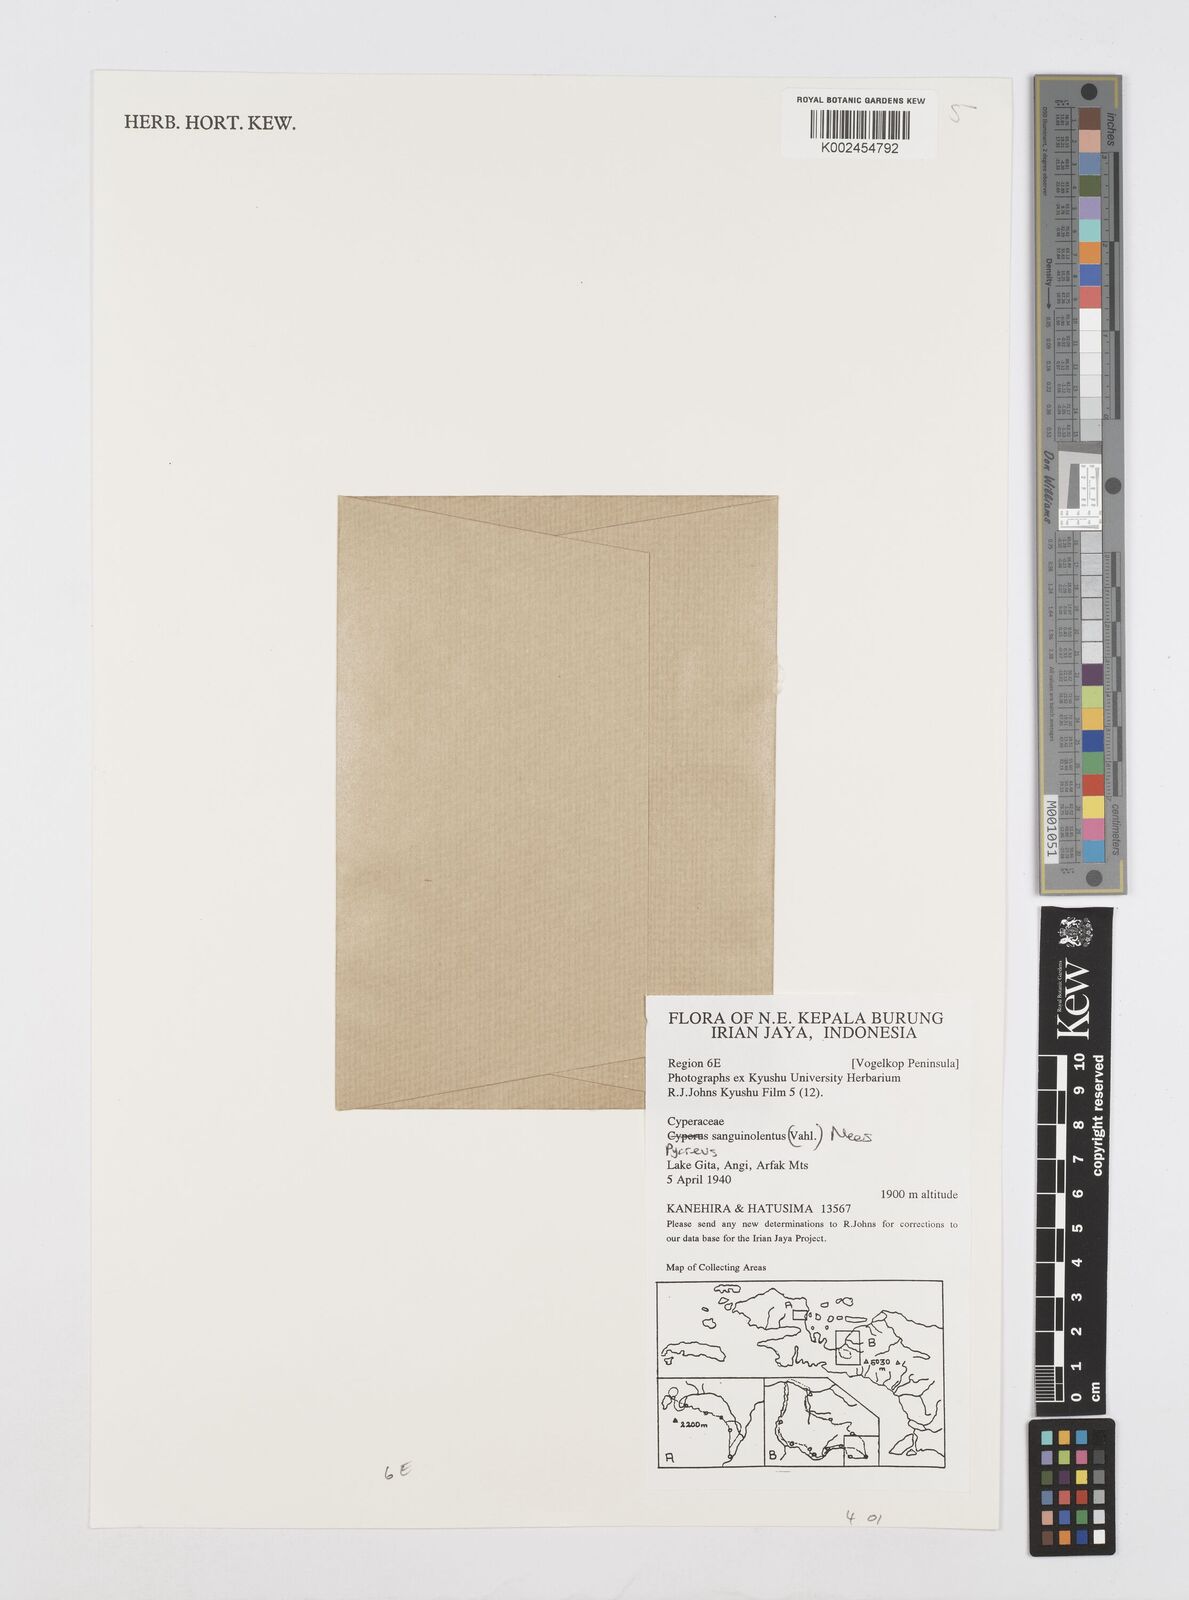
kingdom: Plantae
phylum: Tracheophyta
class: Liliopsida
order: Poales
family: Cyperaceae
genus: Cyperus
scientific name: Cyperus sanguinolentus
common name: Purpleglume flatsedge
